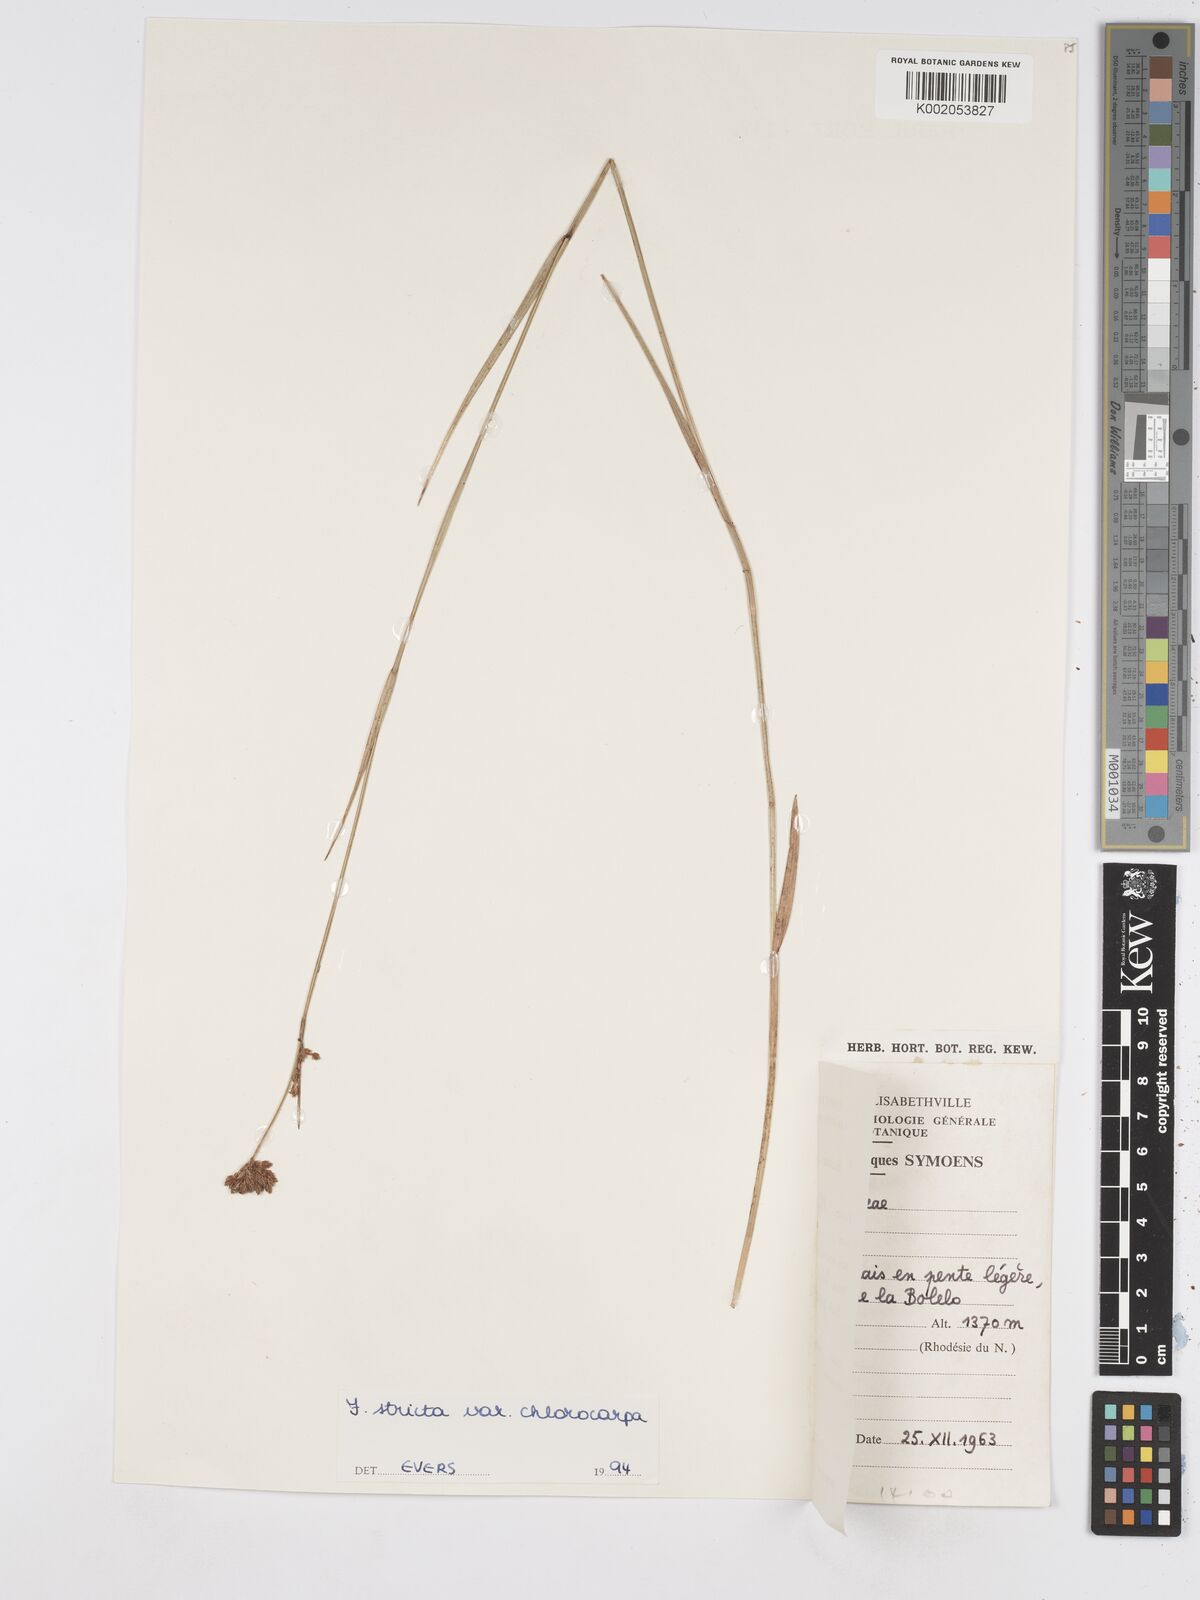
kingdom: Plantae
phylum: Tracheophyta
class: Liliopsida
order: Poales
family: Cyperaceae
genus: Fuirena
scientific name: Fuirena stricta
